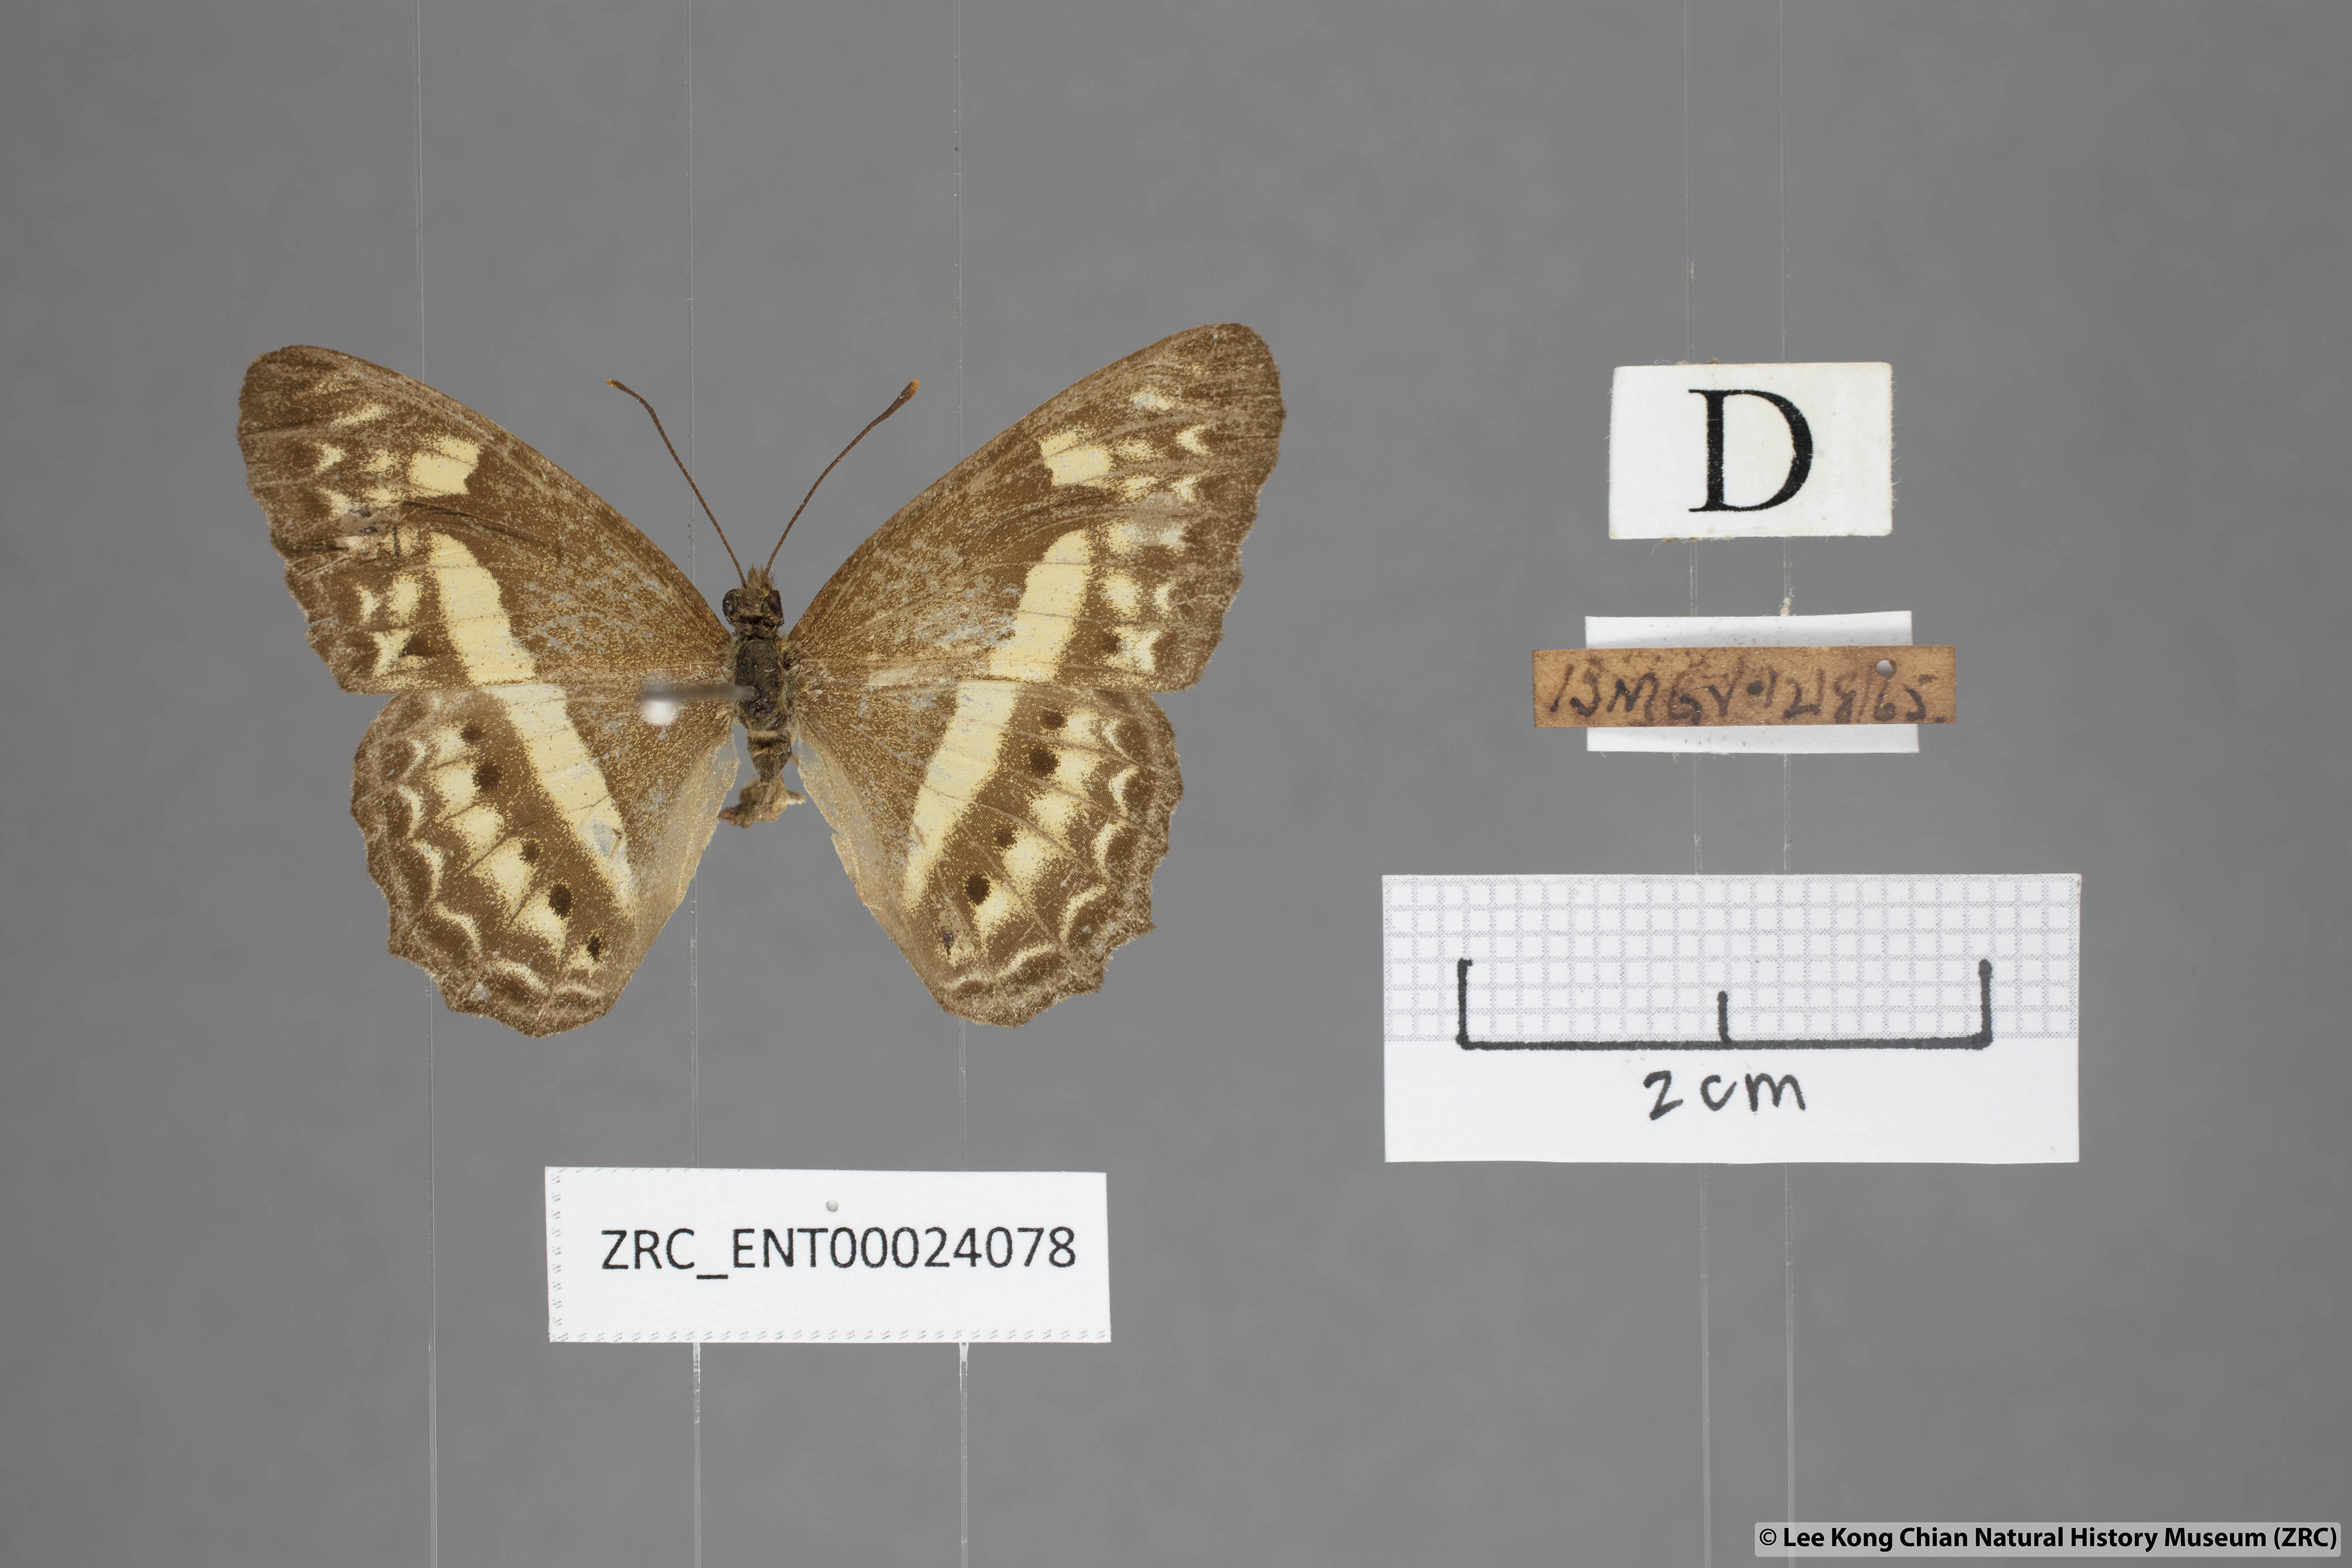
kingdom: Animalia
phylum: Arthropoda
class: Insecta
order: Lepidoptera
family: Nymphalidae
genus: Cirrochroa
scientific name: Cirrochroa fasciata
